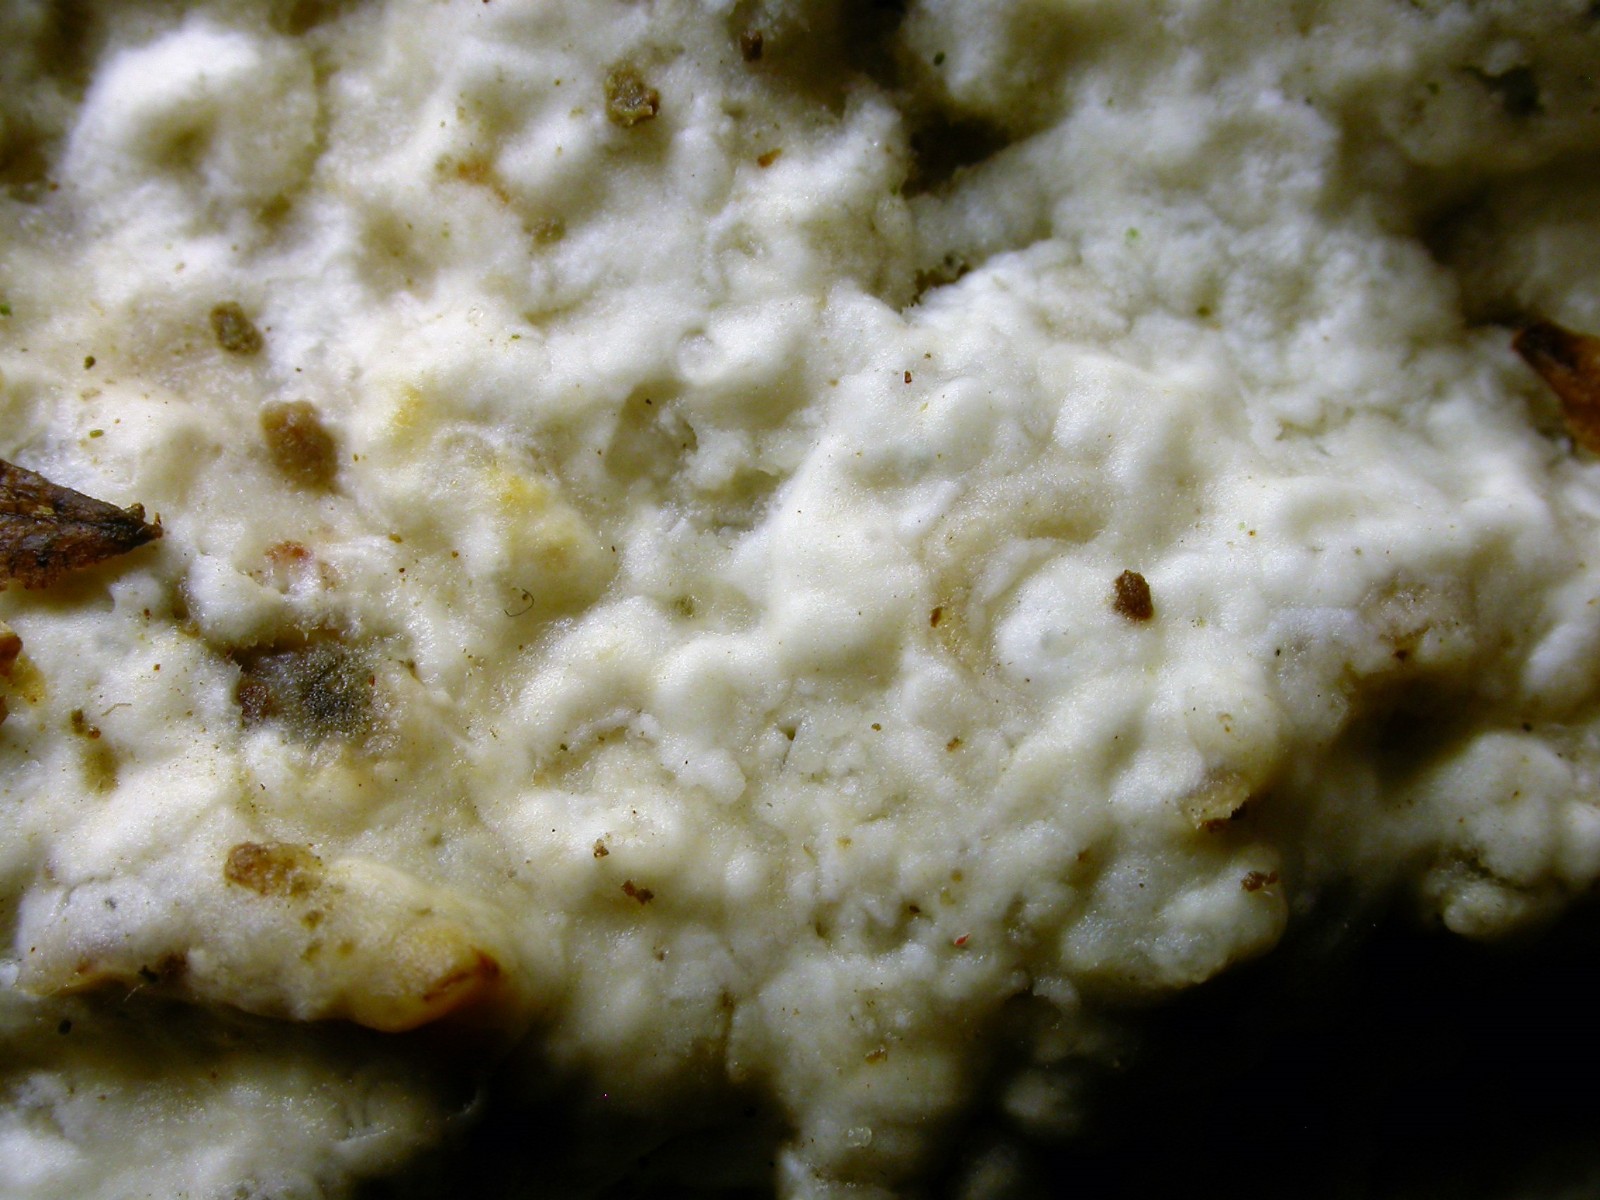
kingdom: Fungi
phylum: Basidiomycota
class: Agaricomycetes
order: Polyporales
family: Phanerochaetaceae
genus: Phanerochaete
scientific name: Phanerochaete sordida
